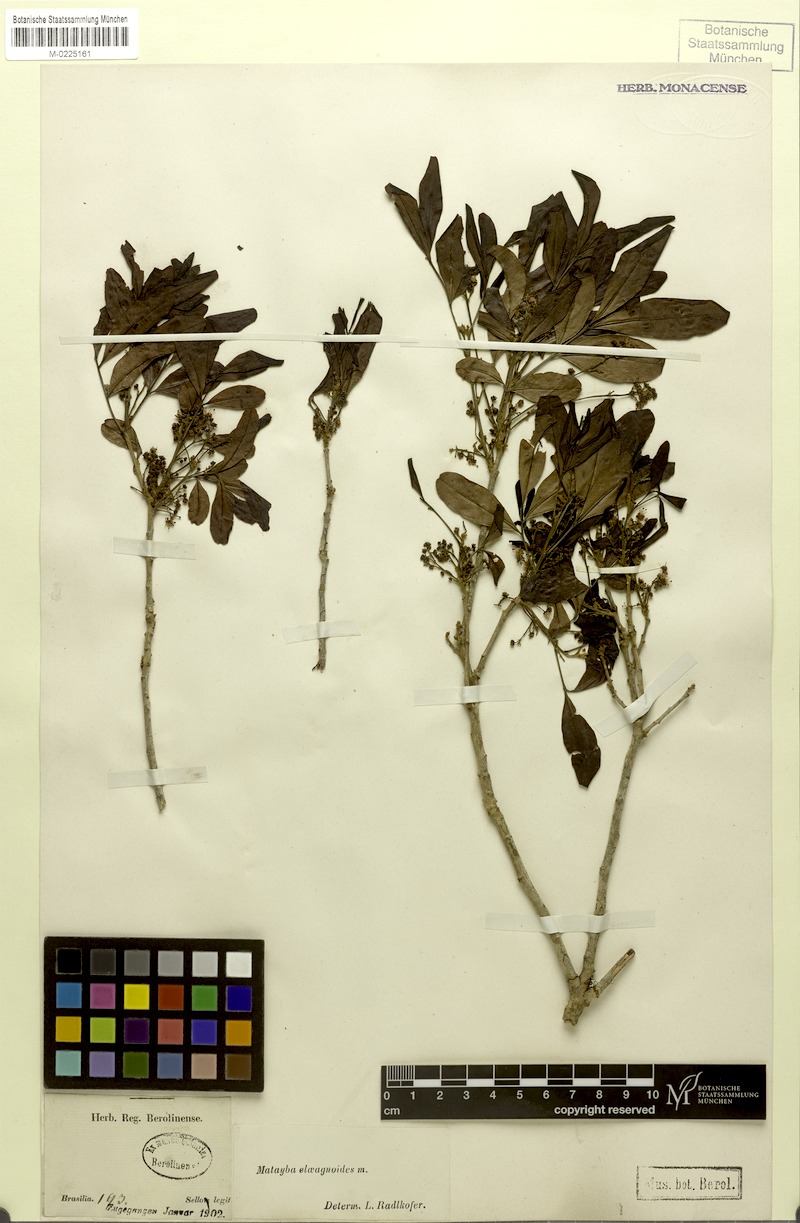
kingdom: Plantae
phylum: Tracheophyta
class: Magnoliopsida
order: Sapindales
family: Sapindaceae
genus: Matayba
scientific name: Matayba elaeagnoides
